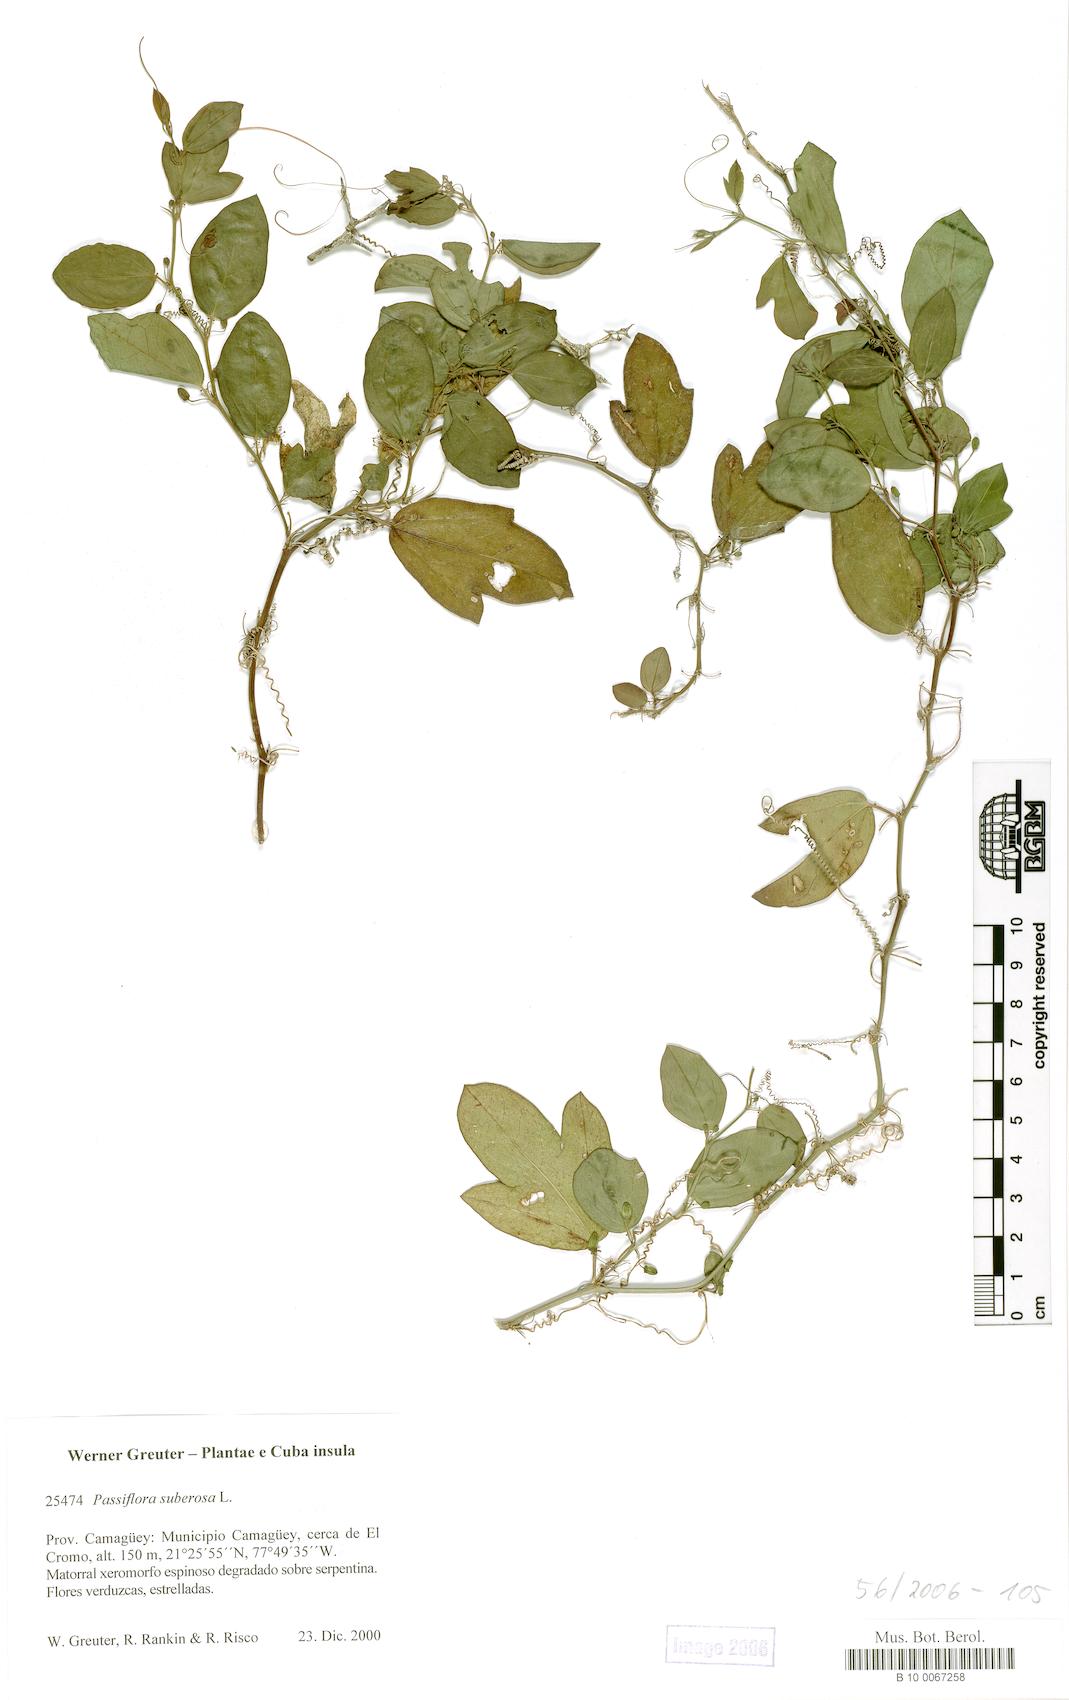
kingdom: Plantae
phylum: Tracheophyta
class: Magnoliopsida
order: Malpighiales
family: Passifloraceae
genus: Passiflora
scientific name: Passiflora suberosa
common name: Wild passionfruit
